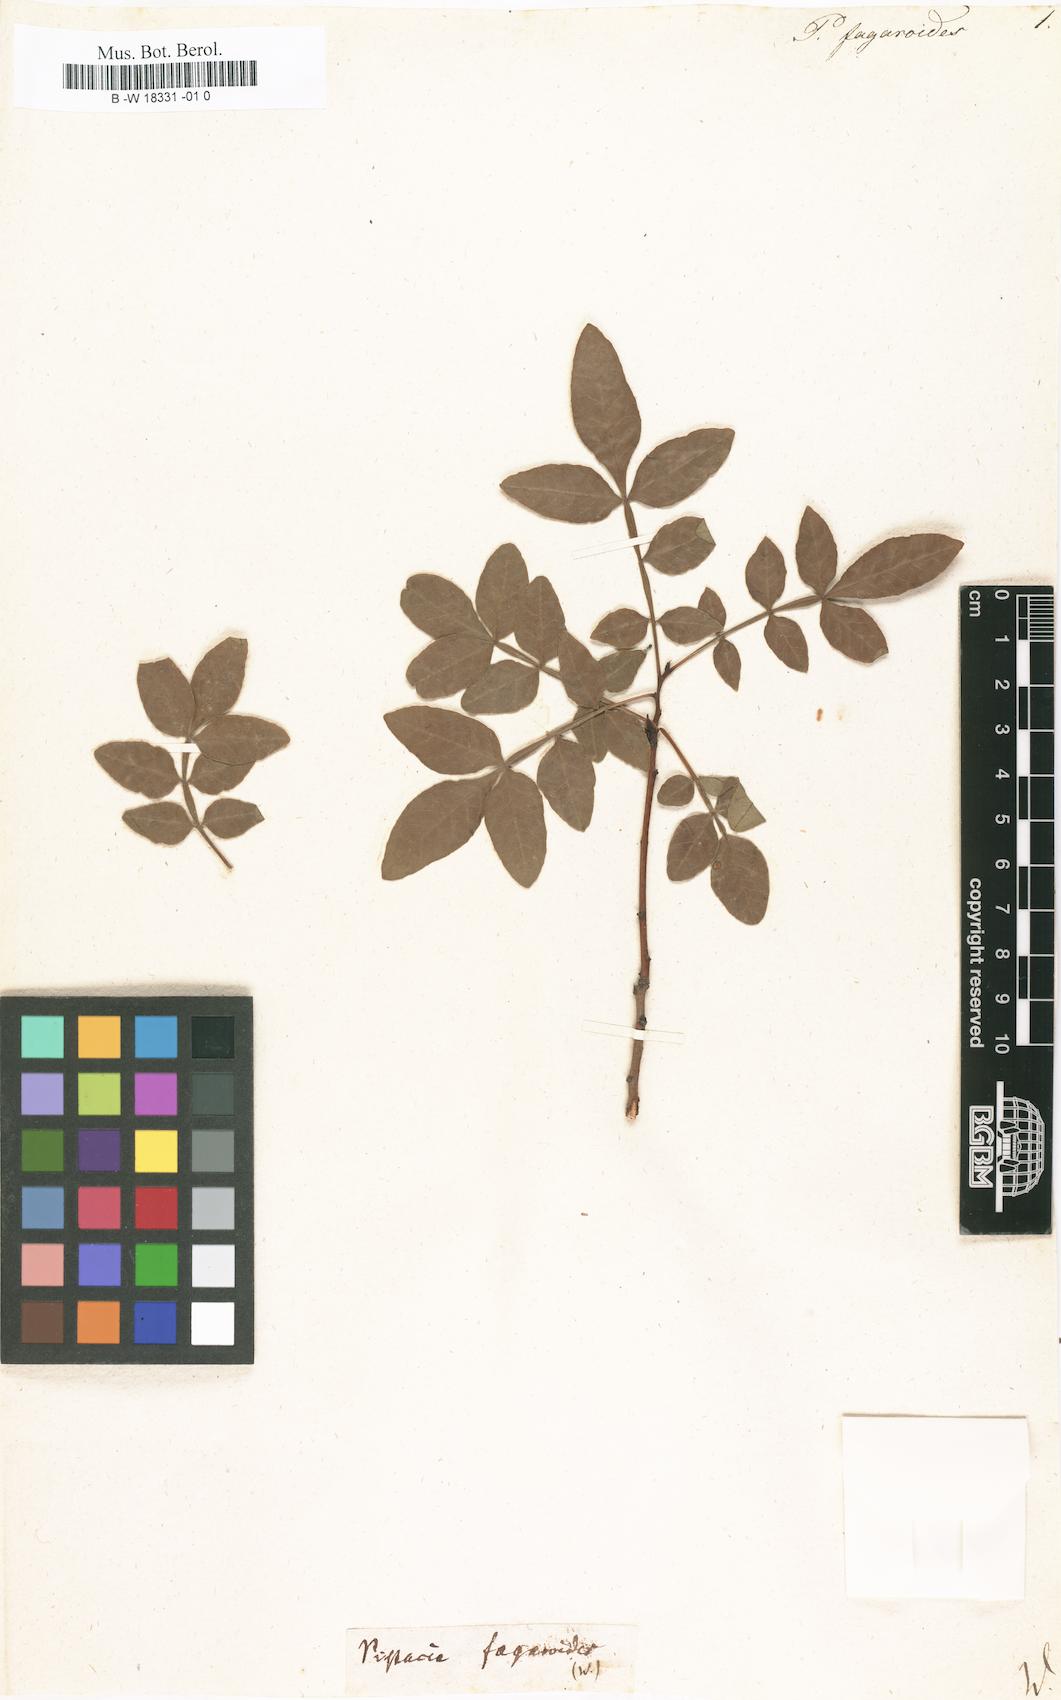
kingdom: Plantae
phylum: Tracheophyta
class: Magnoliopsida
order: Sapindales
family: Anacardiaceae
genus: Pistacia
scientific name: Pistacia fagaroides
